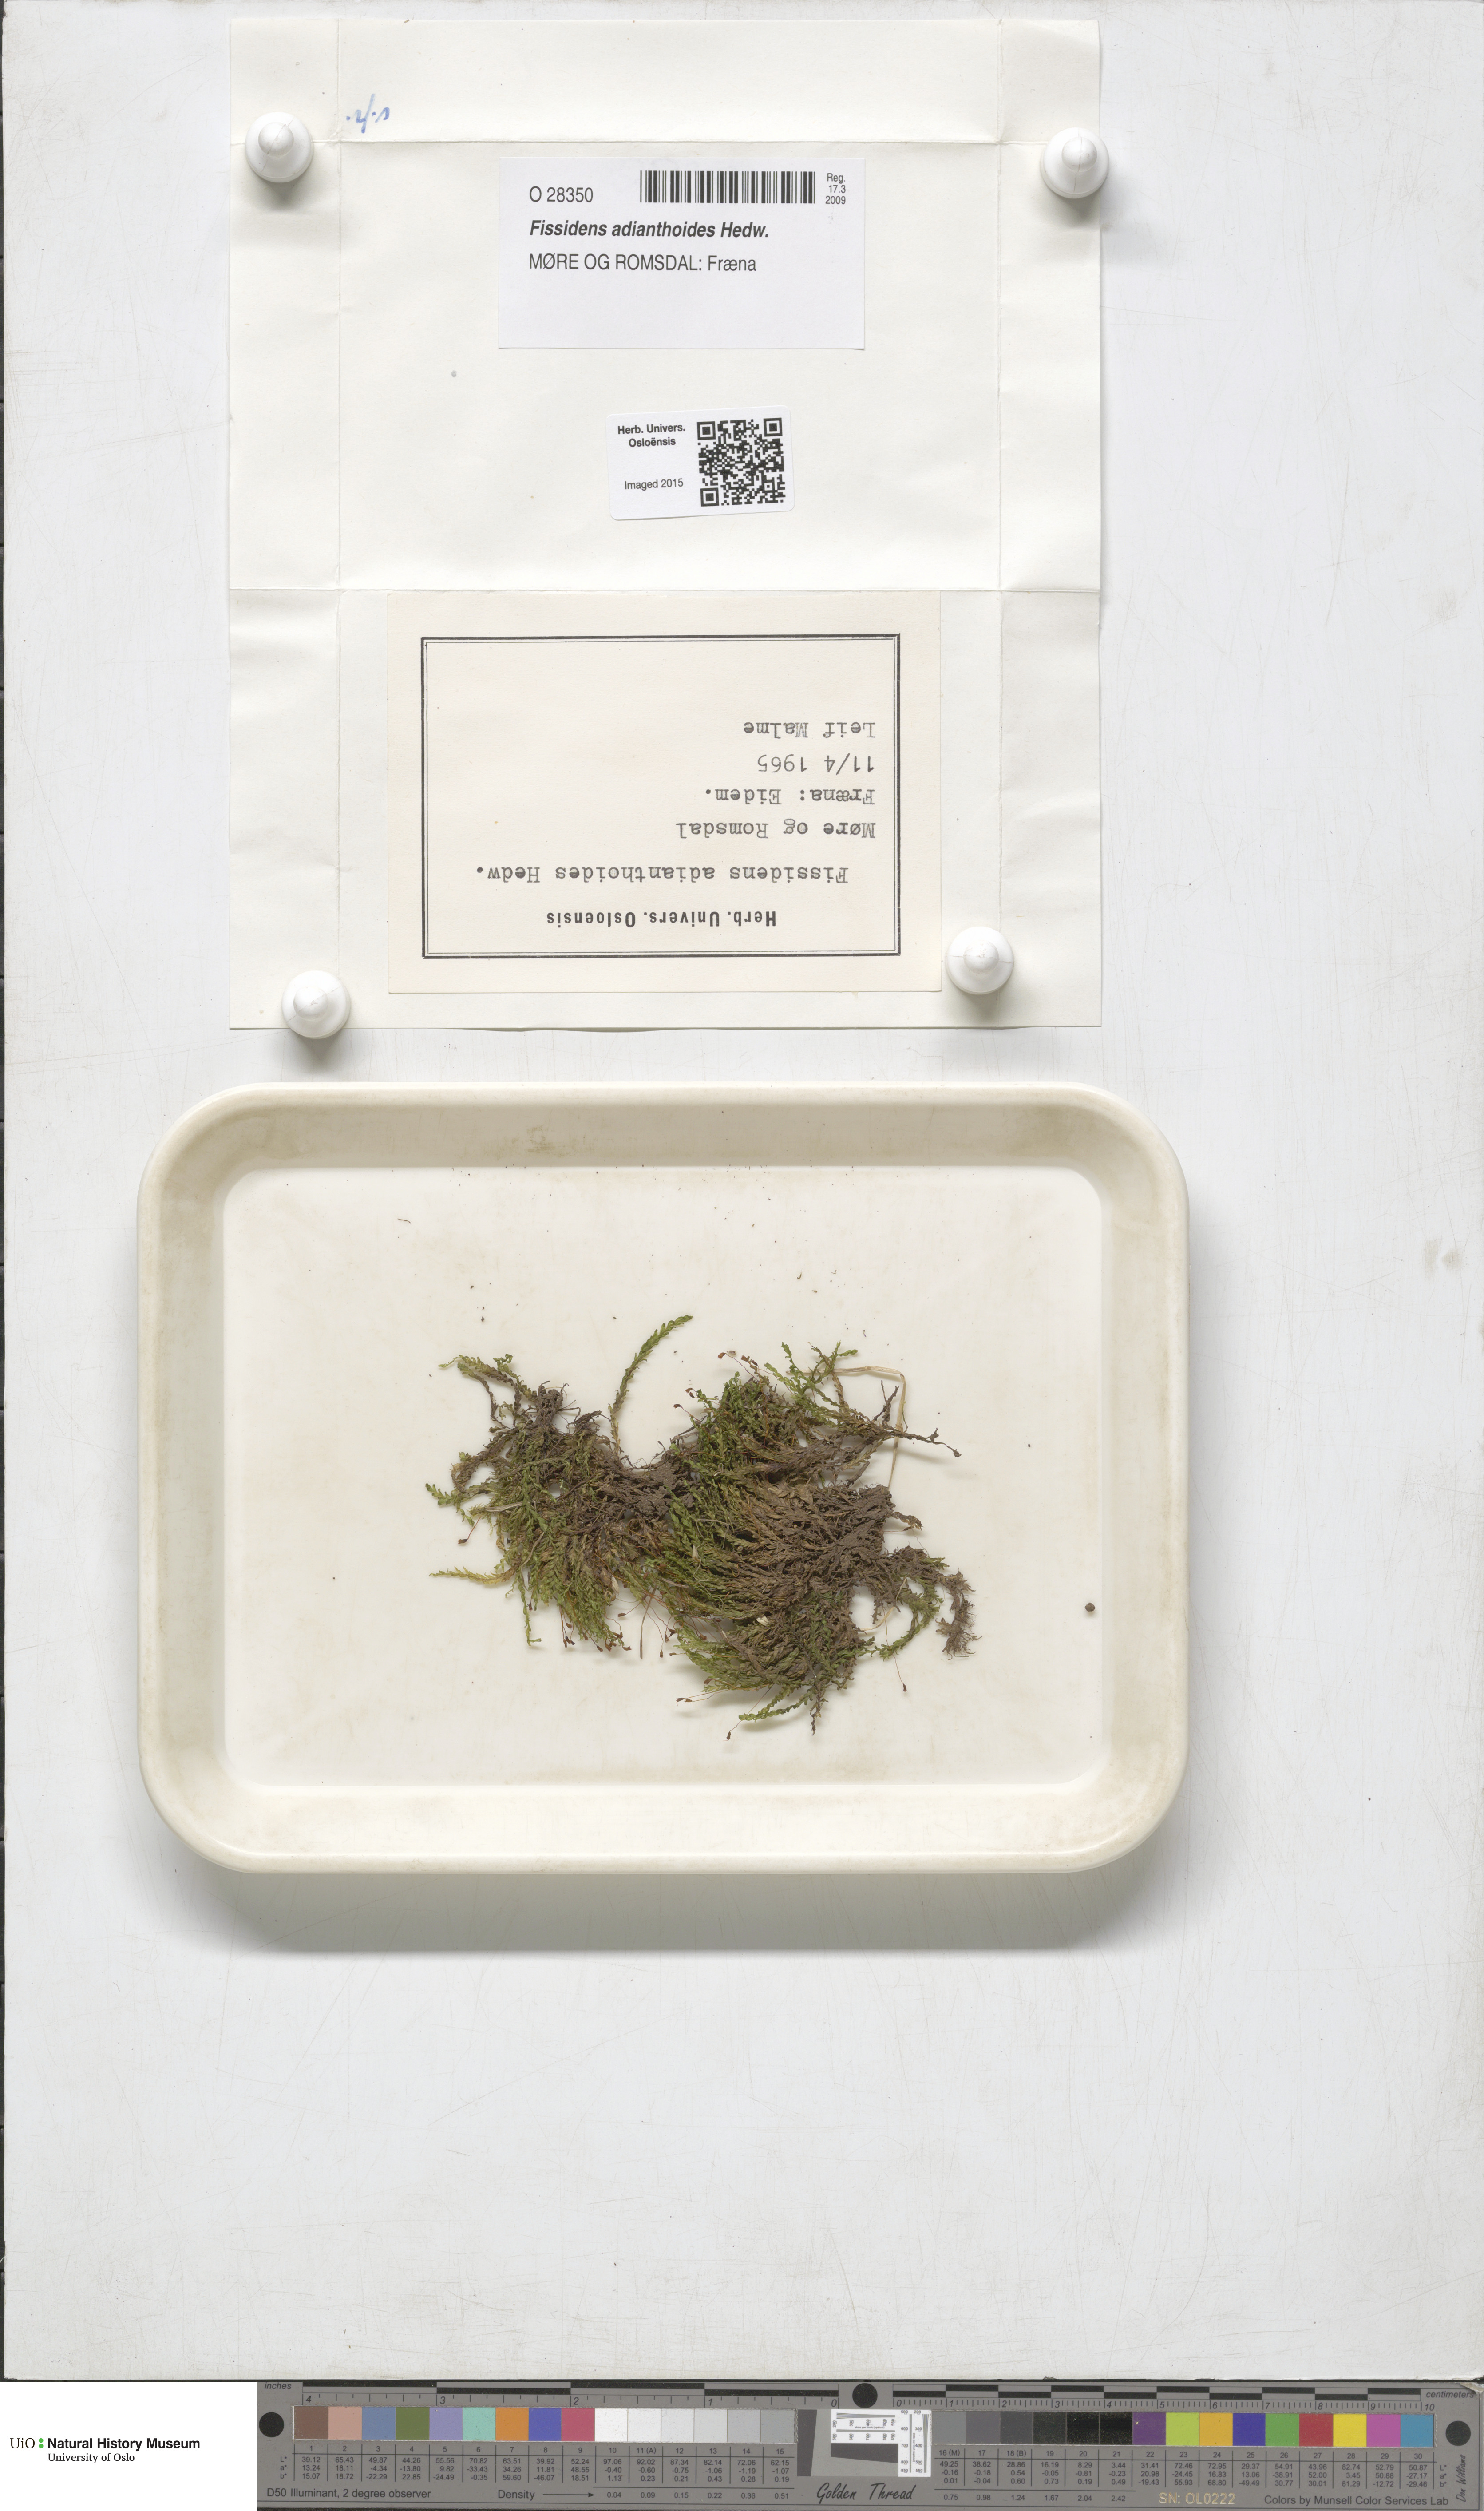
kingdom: Plantae
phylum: Bryophyta
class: Bryopsida
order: Dicranales
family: Fissidentaceae
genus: Fissidens
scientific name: Fissidens adianthoides
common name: Maidenhair pocket moss
